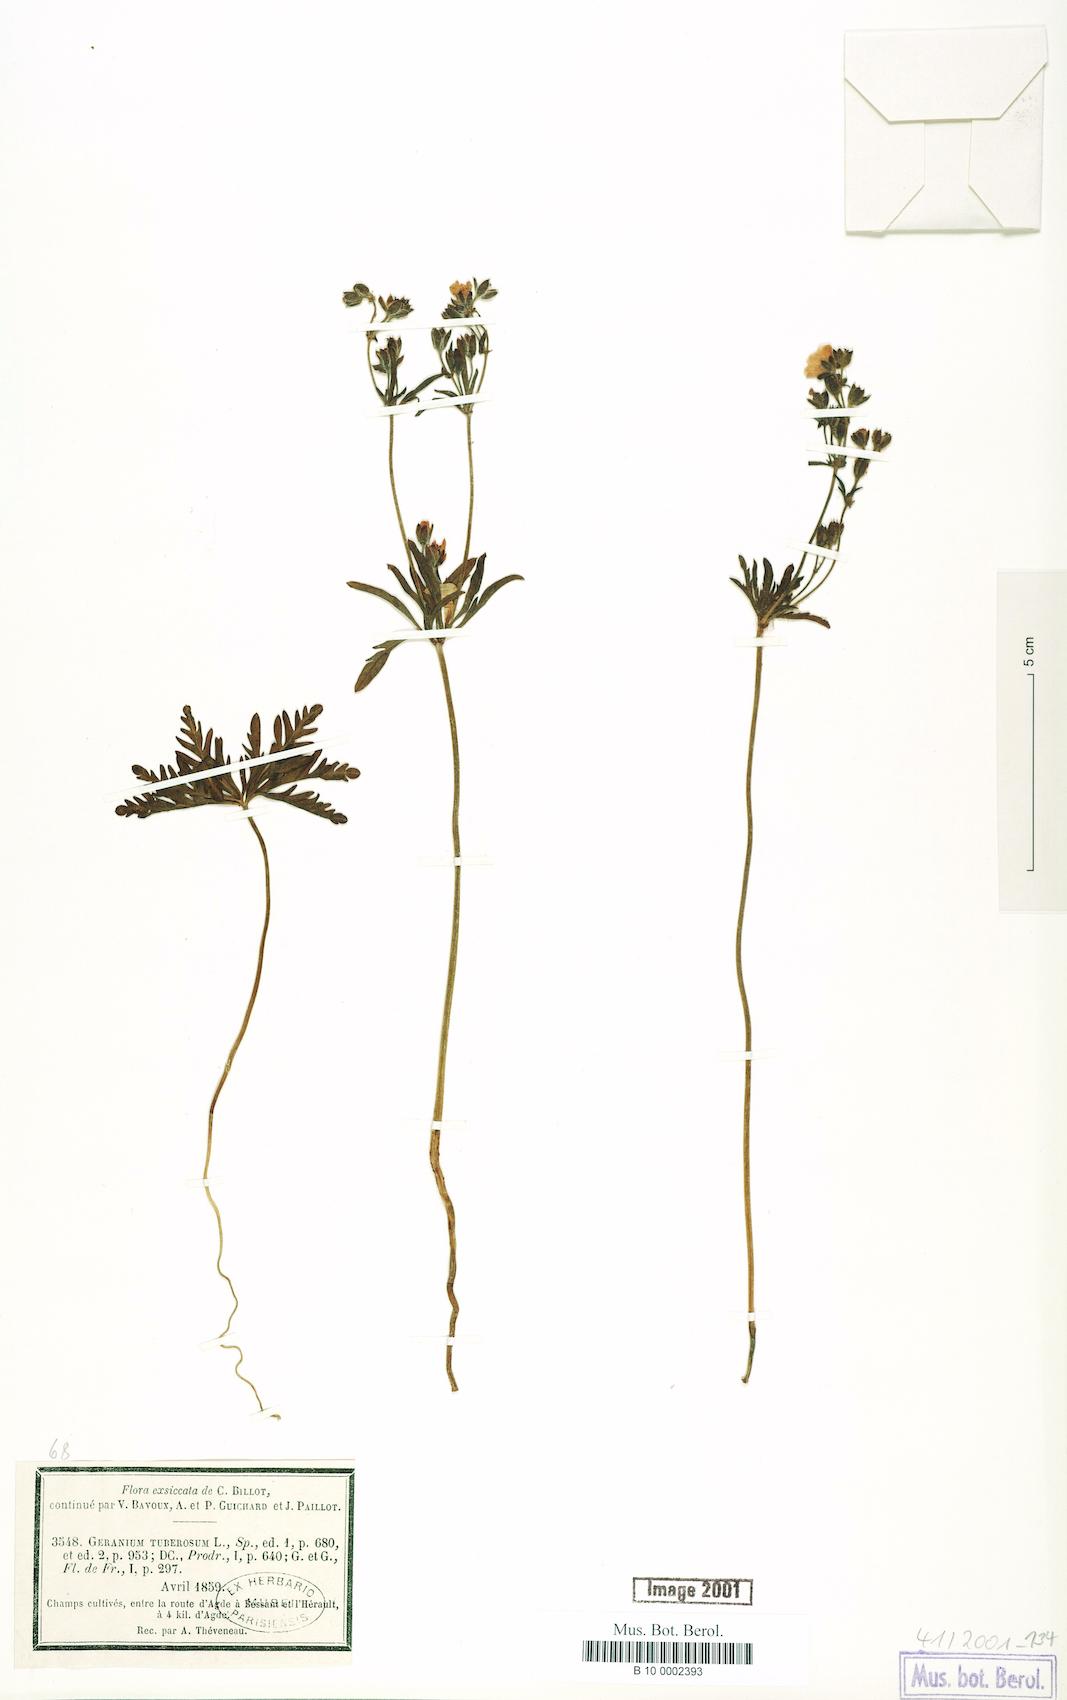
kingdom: Plantae
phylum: Tracheophyta
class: Magnoliopsida
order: Geraniales
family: Geraniaceae
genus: Geranium
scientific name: Geranium tuberosum
